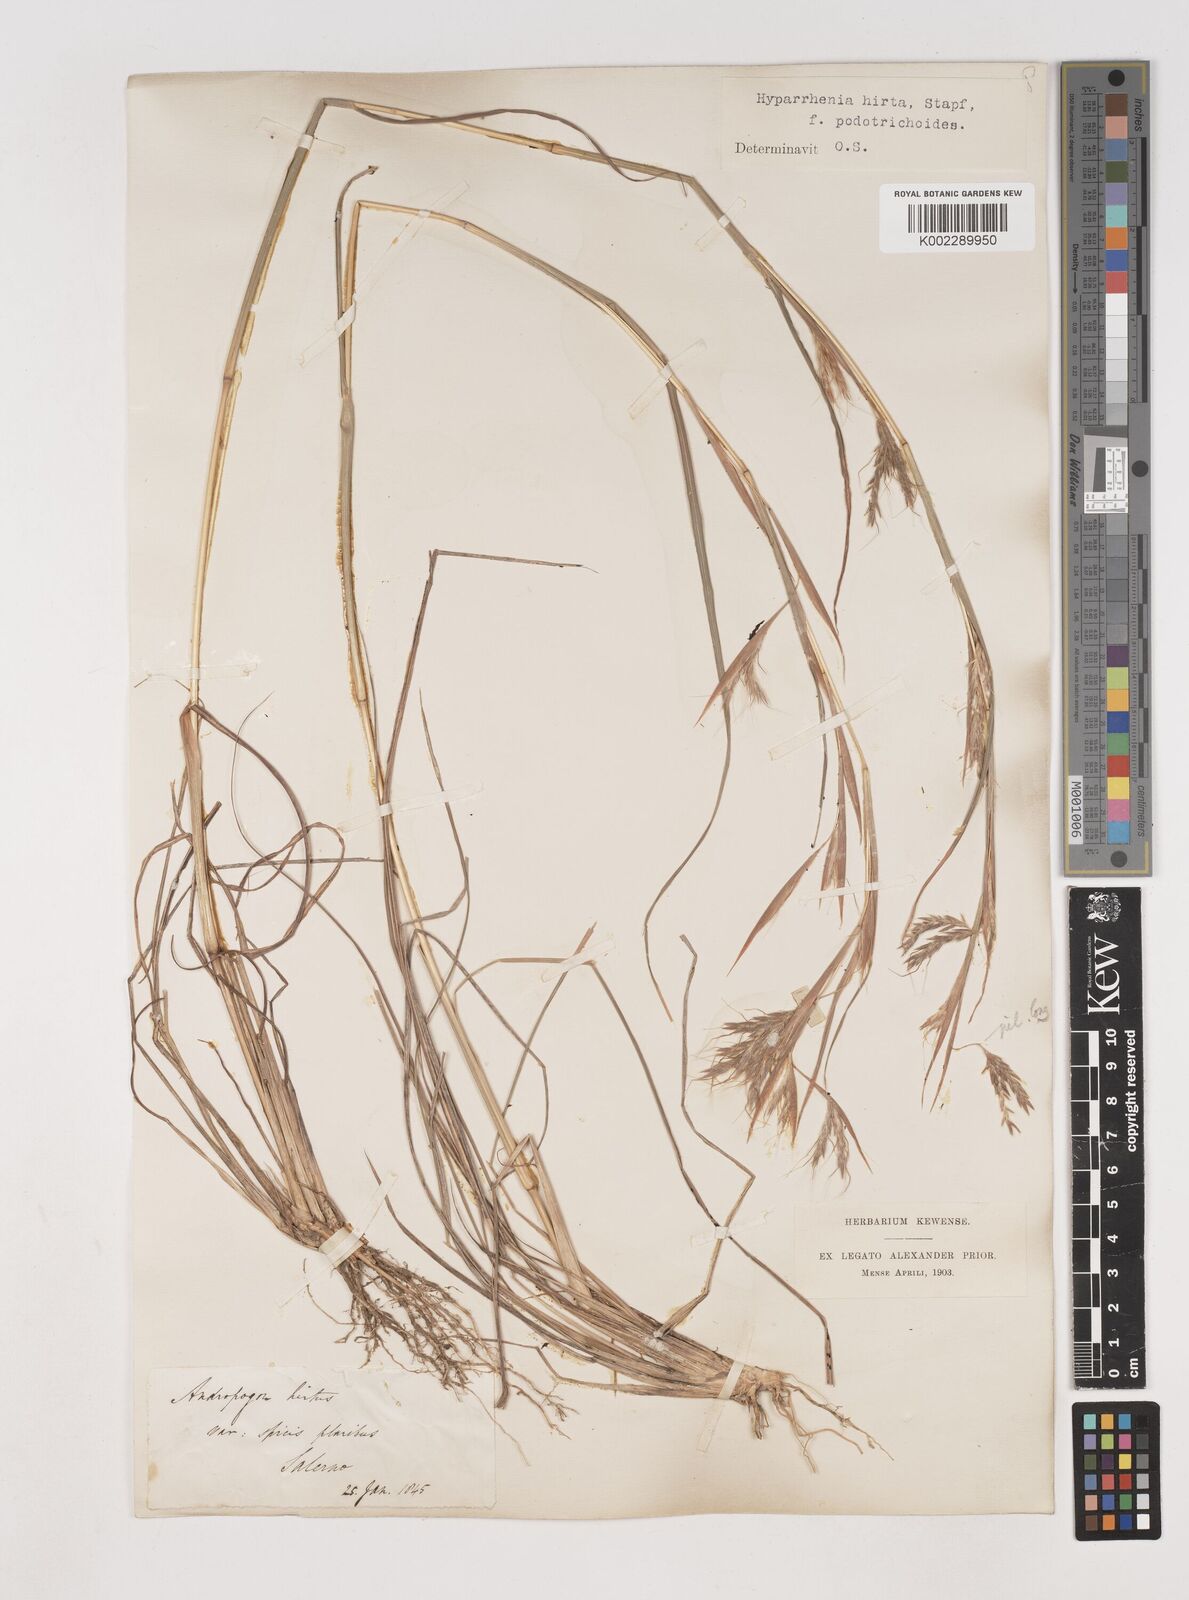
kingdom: Plantae
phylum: Tracheophyta
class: Liliopsida
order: Poales
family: Poaceae
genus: Hyparrhenia
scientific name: Hyparrhenia hirta
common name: Thatching grass
